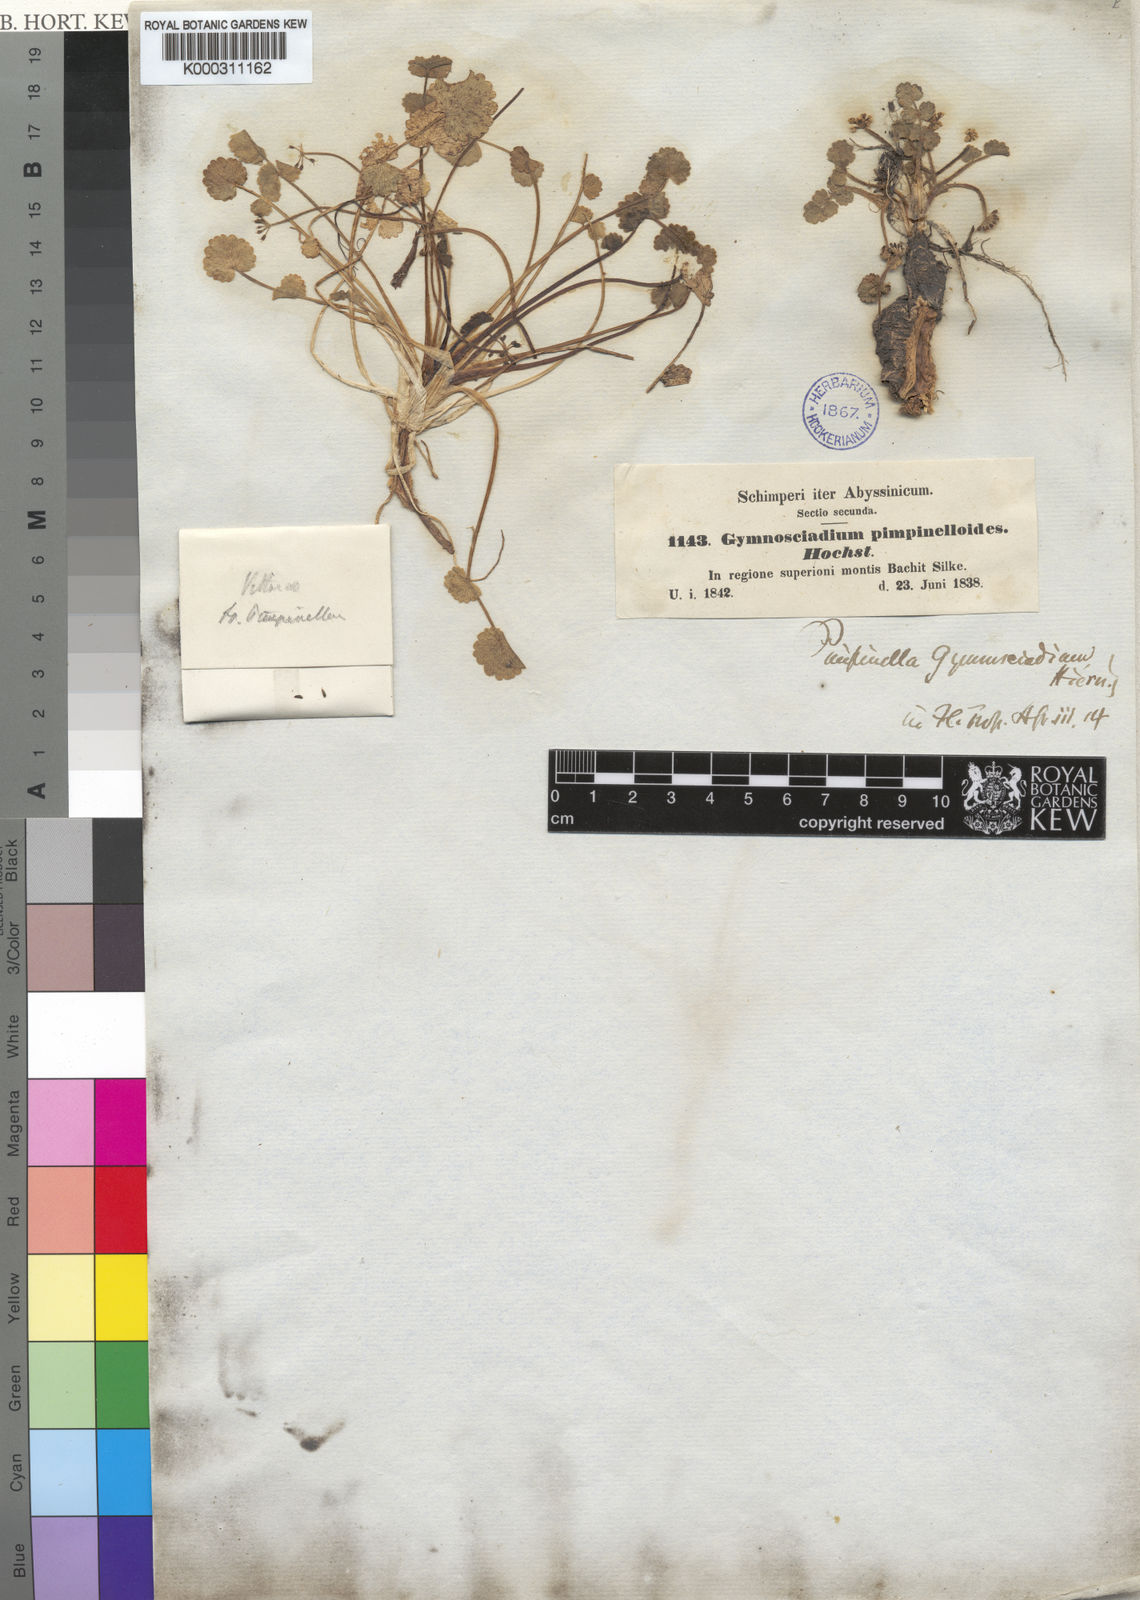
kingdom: Plantae
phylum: Tracheophyta
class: Magnoliopsida
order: Apiales
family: Apiaceae
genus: Pimpinella
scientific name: Pimpinella pimpinelloides
